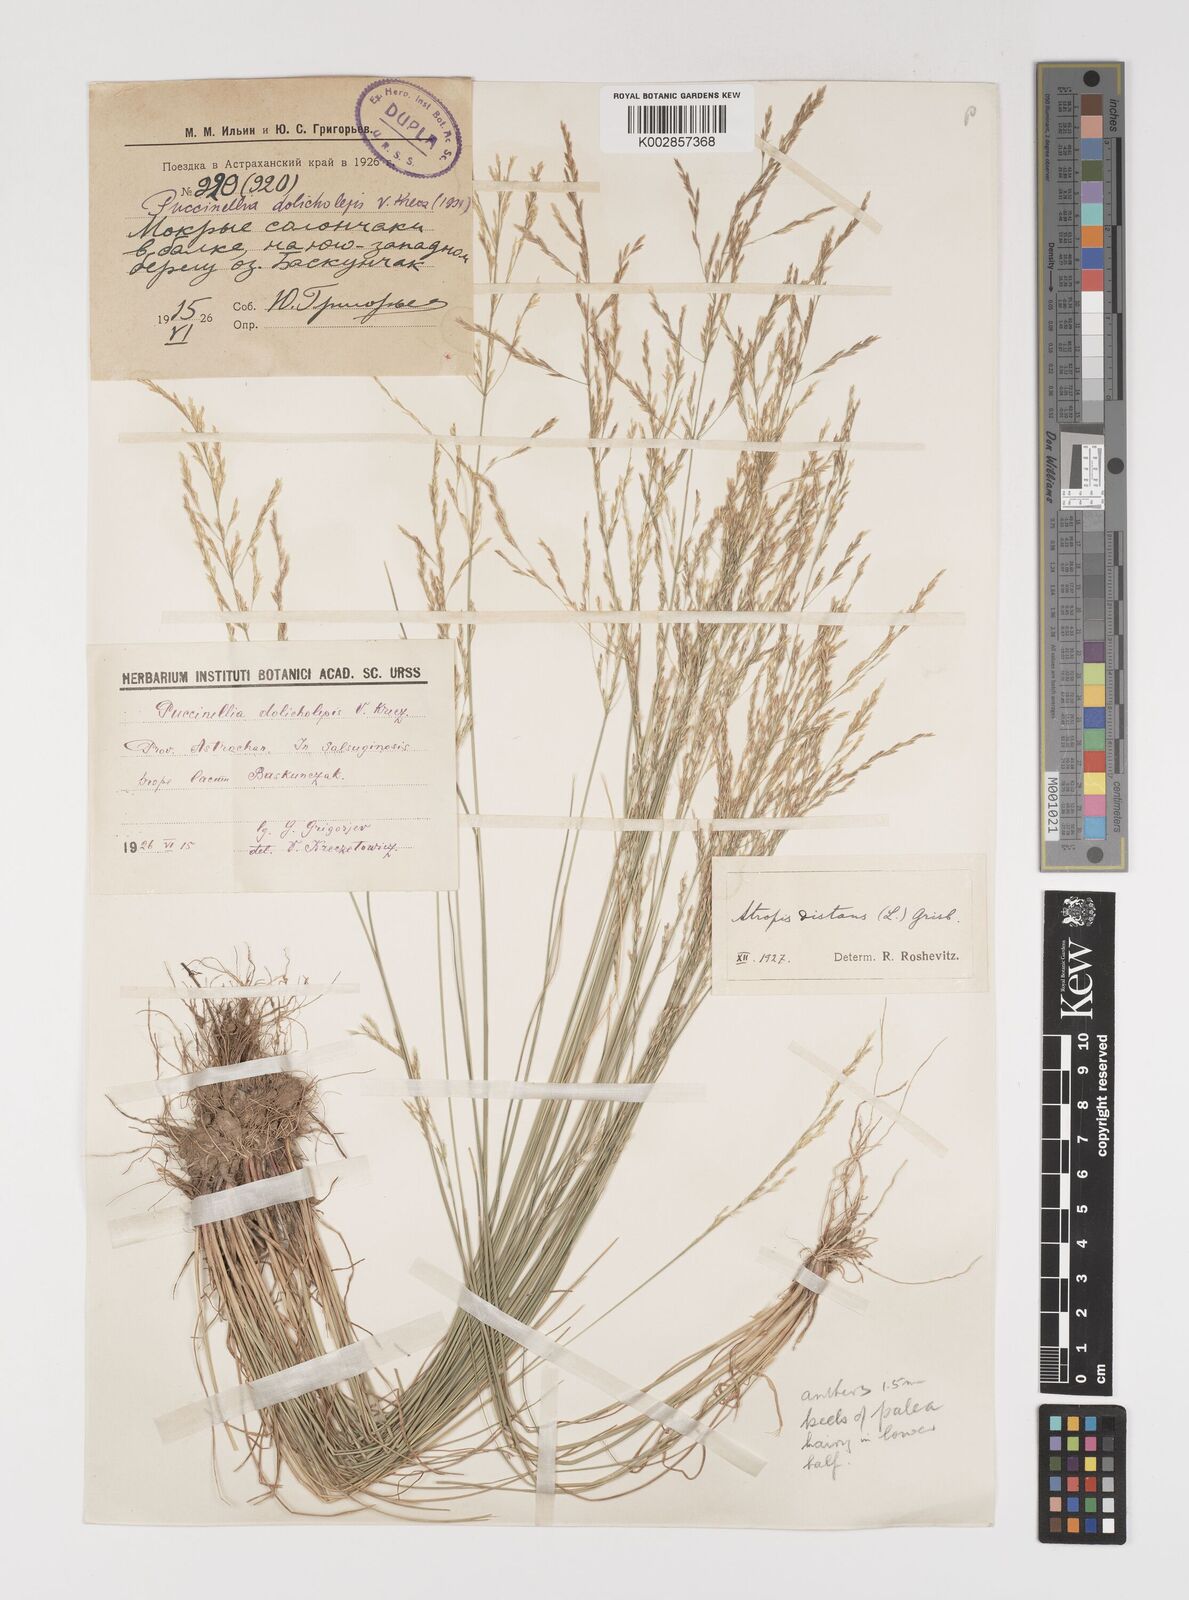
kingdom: Plantae
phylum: Tracheophyta
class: Liliopsida
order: Poales
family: Poaceae
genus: Puccinellia
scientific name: Puccinellia dolicholepis
